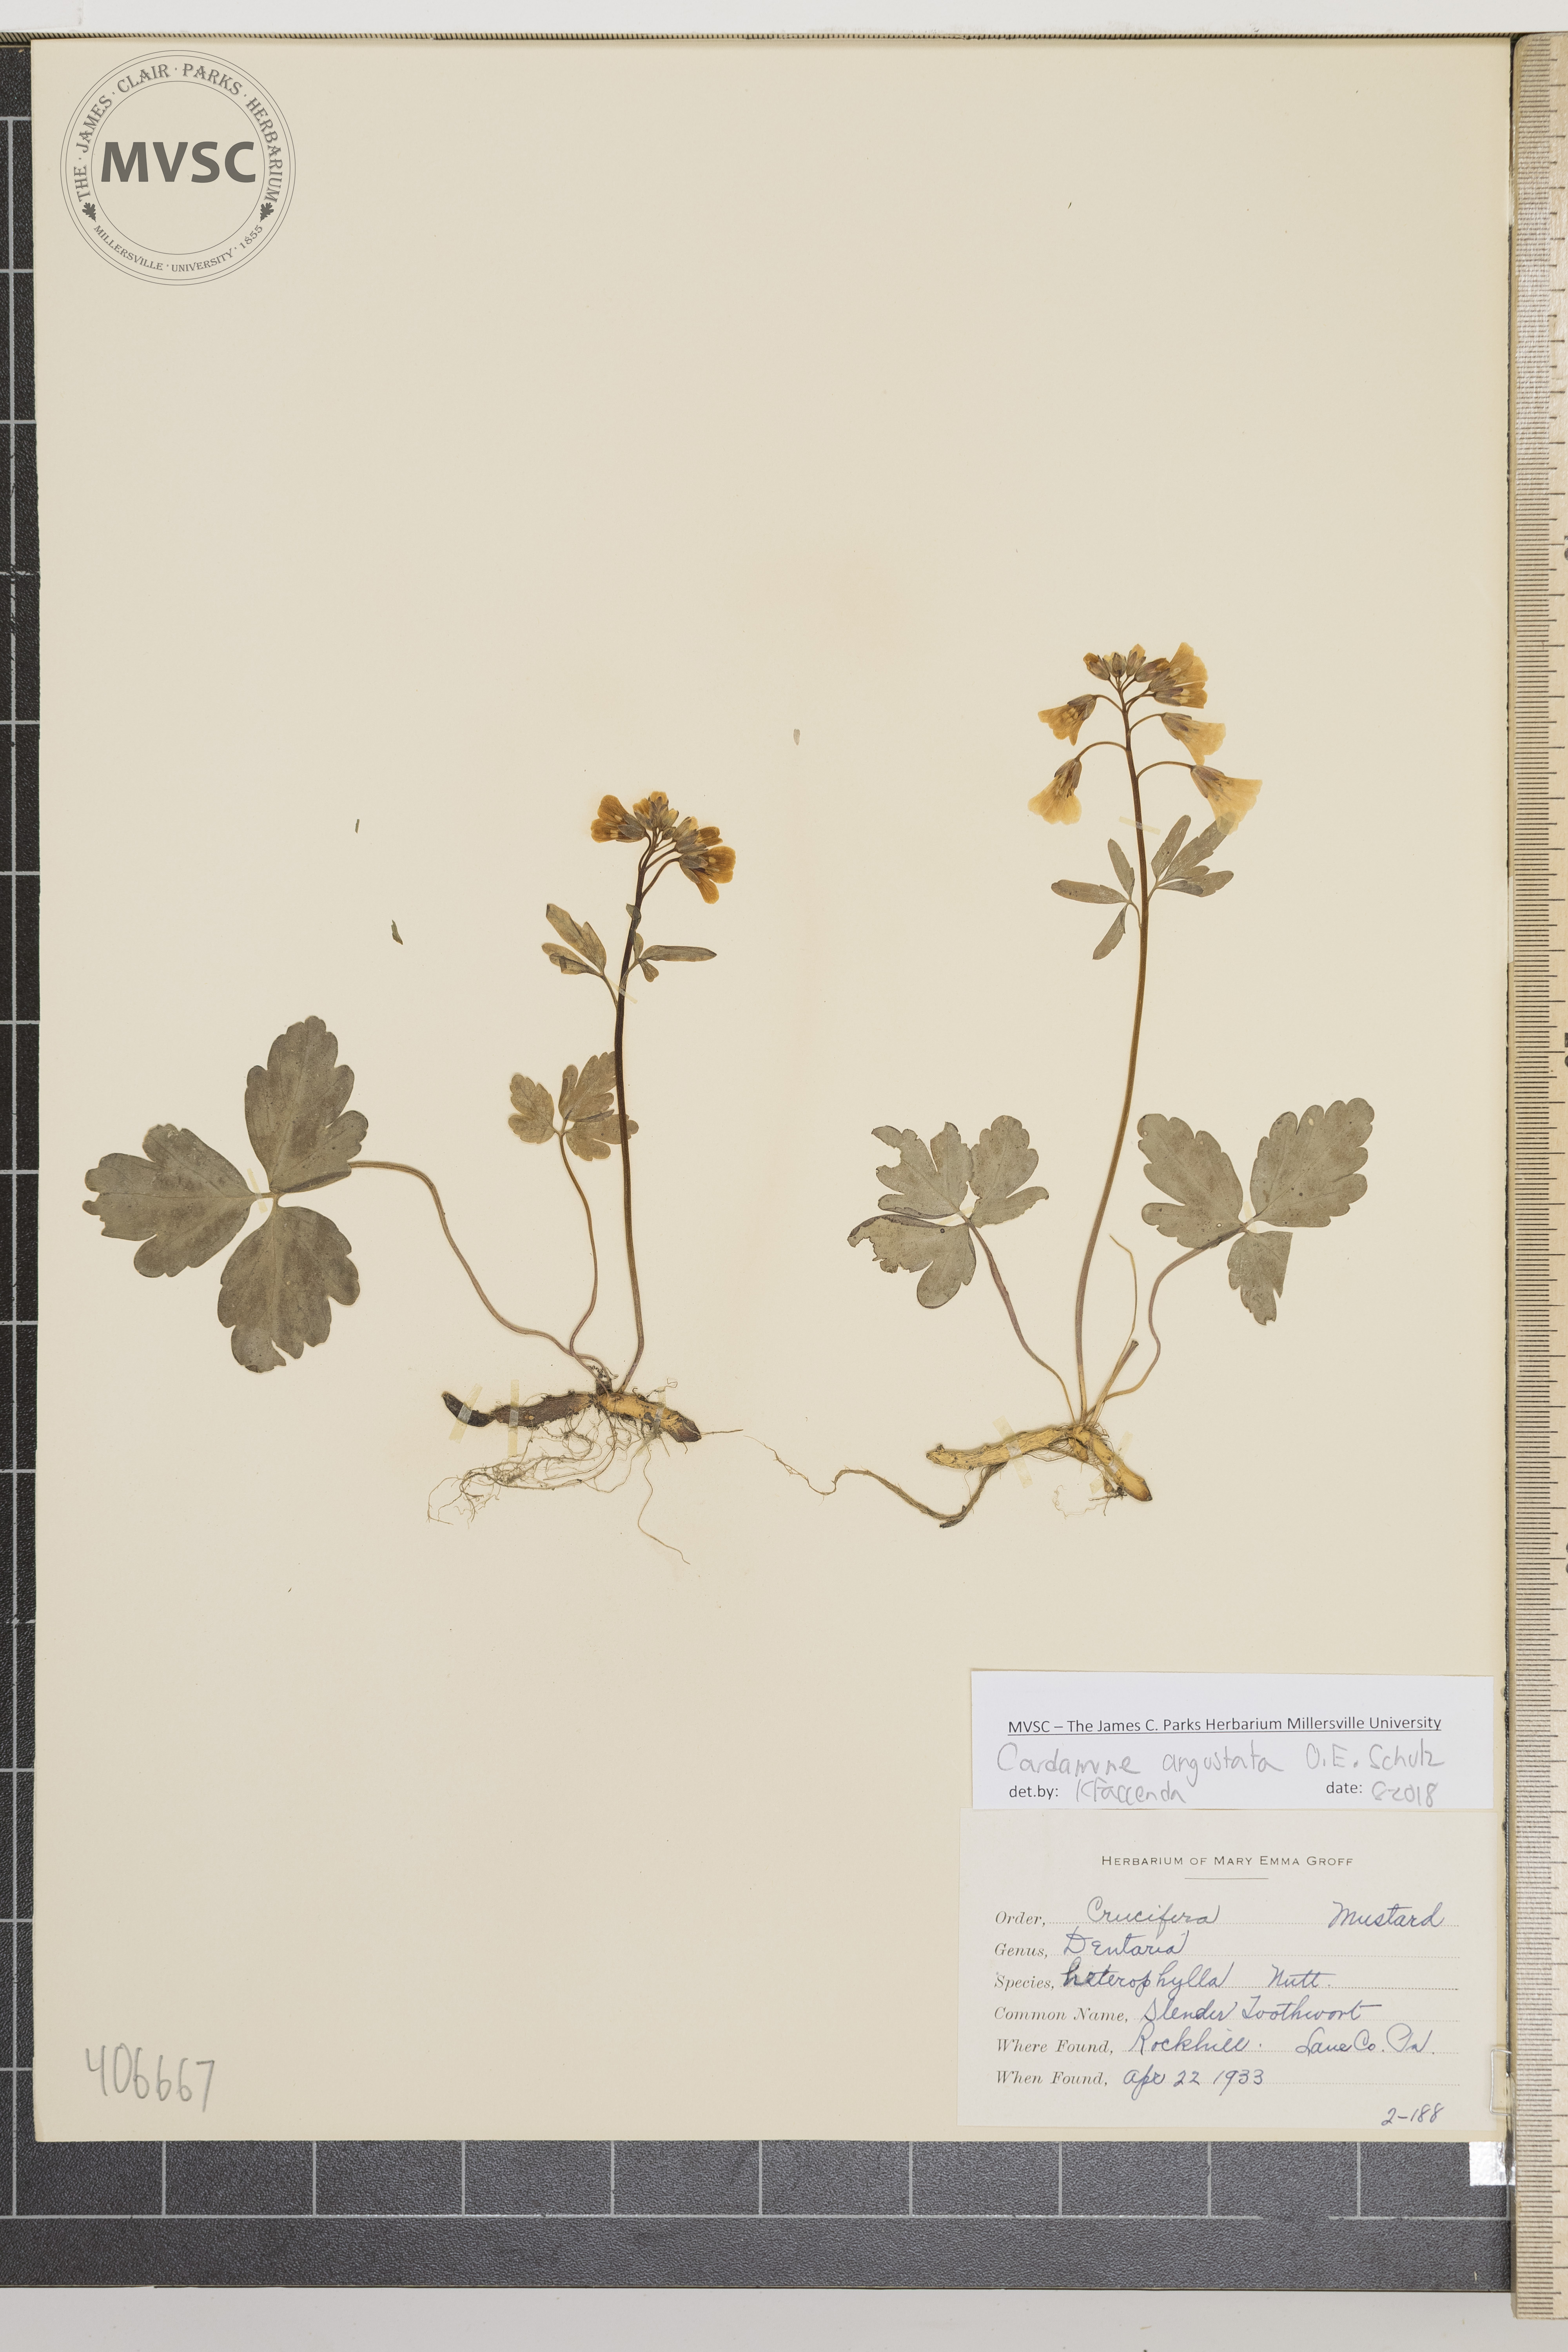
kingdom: Plantae
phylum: Tracheophyta
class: Magnoliopsida
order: Brassicales
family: Brassicaceae
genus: Cardamine
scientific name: Cardamine angustata
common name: Slender Toothwort
